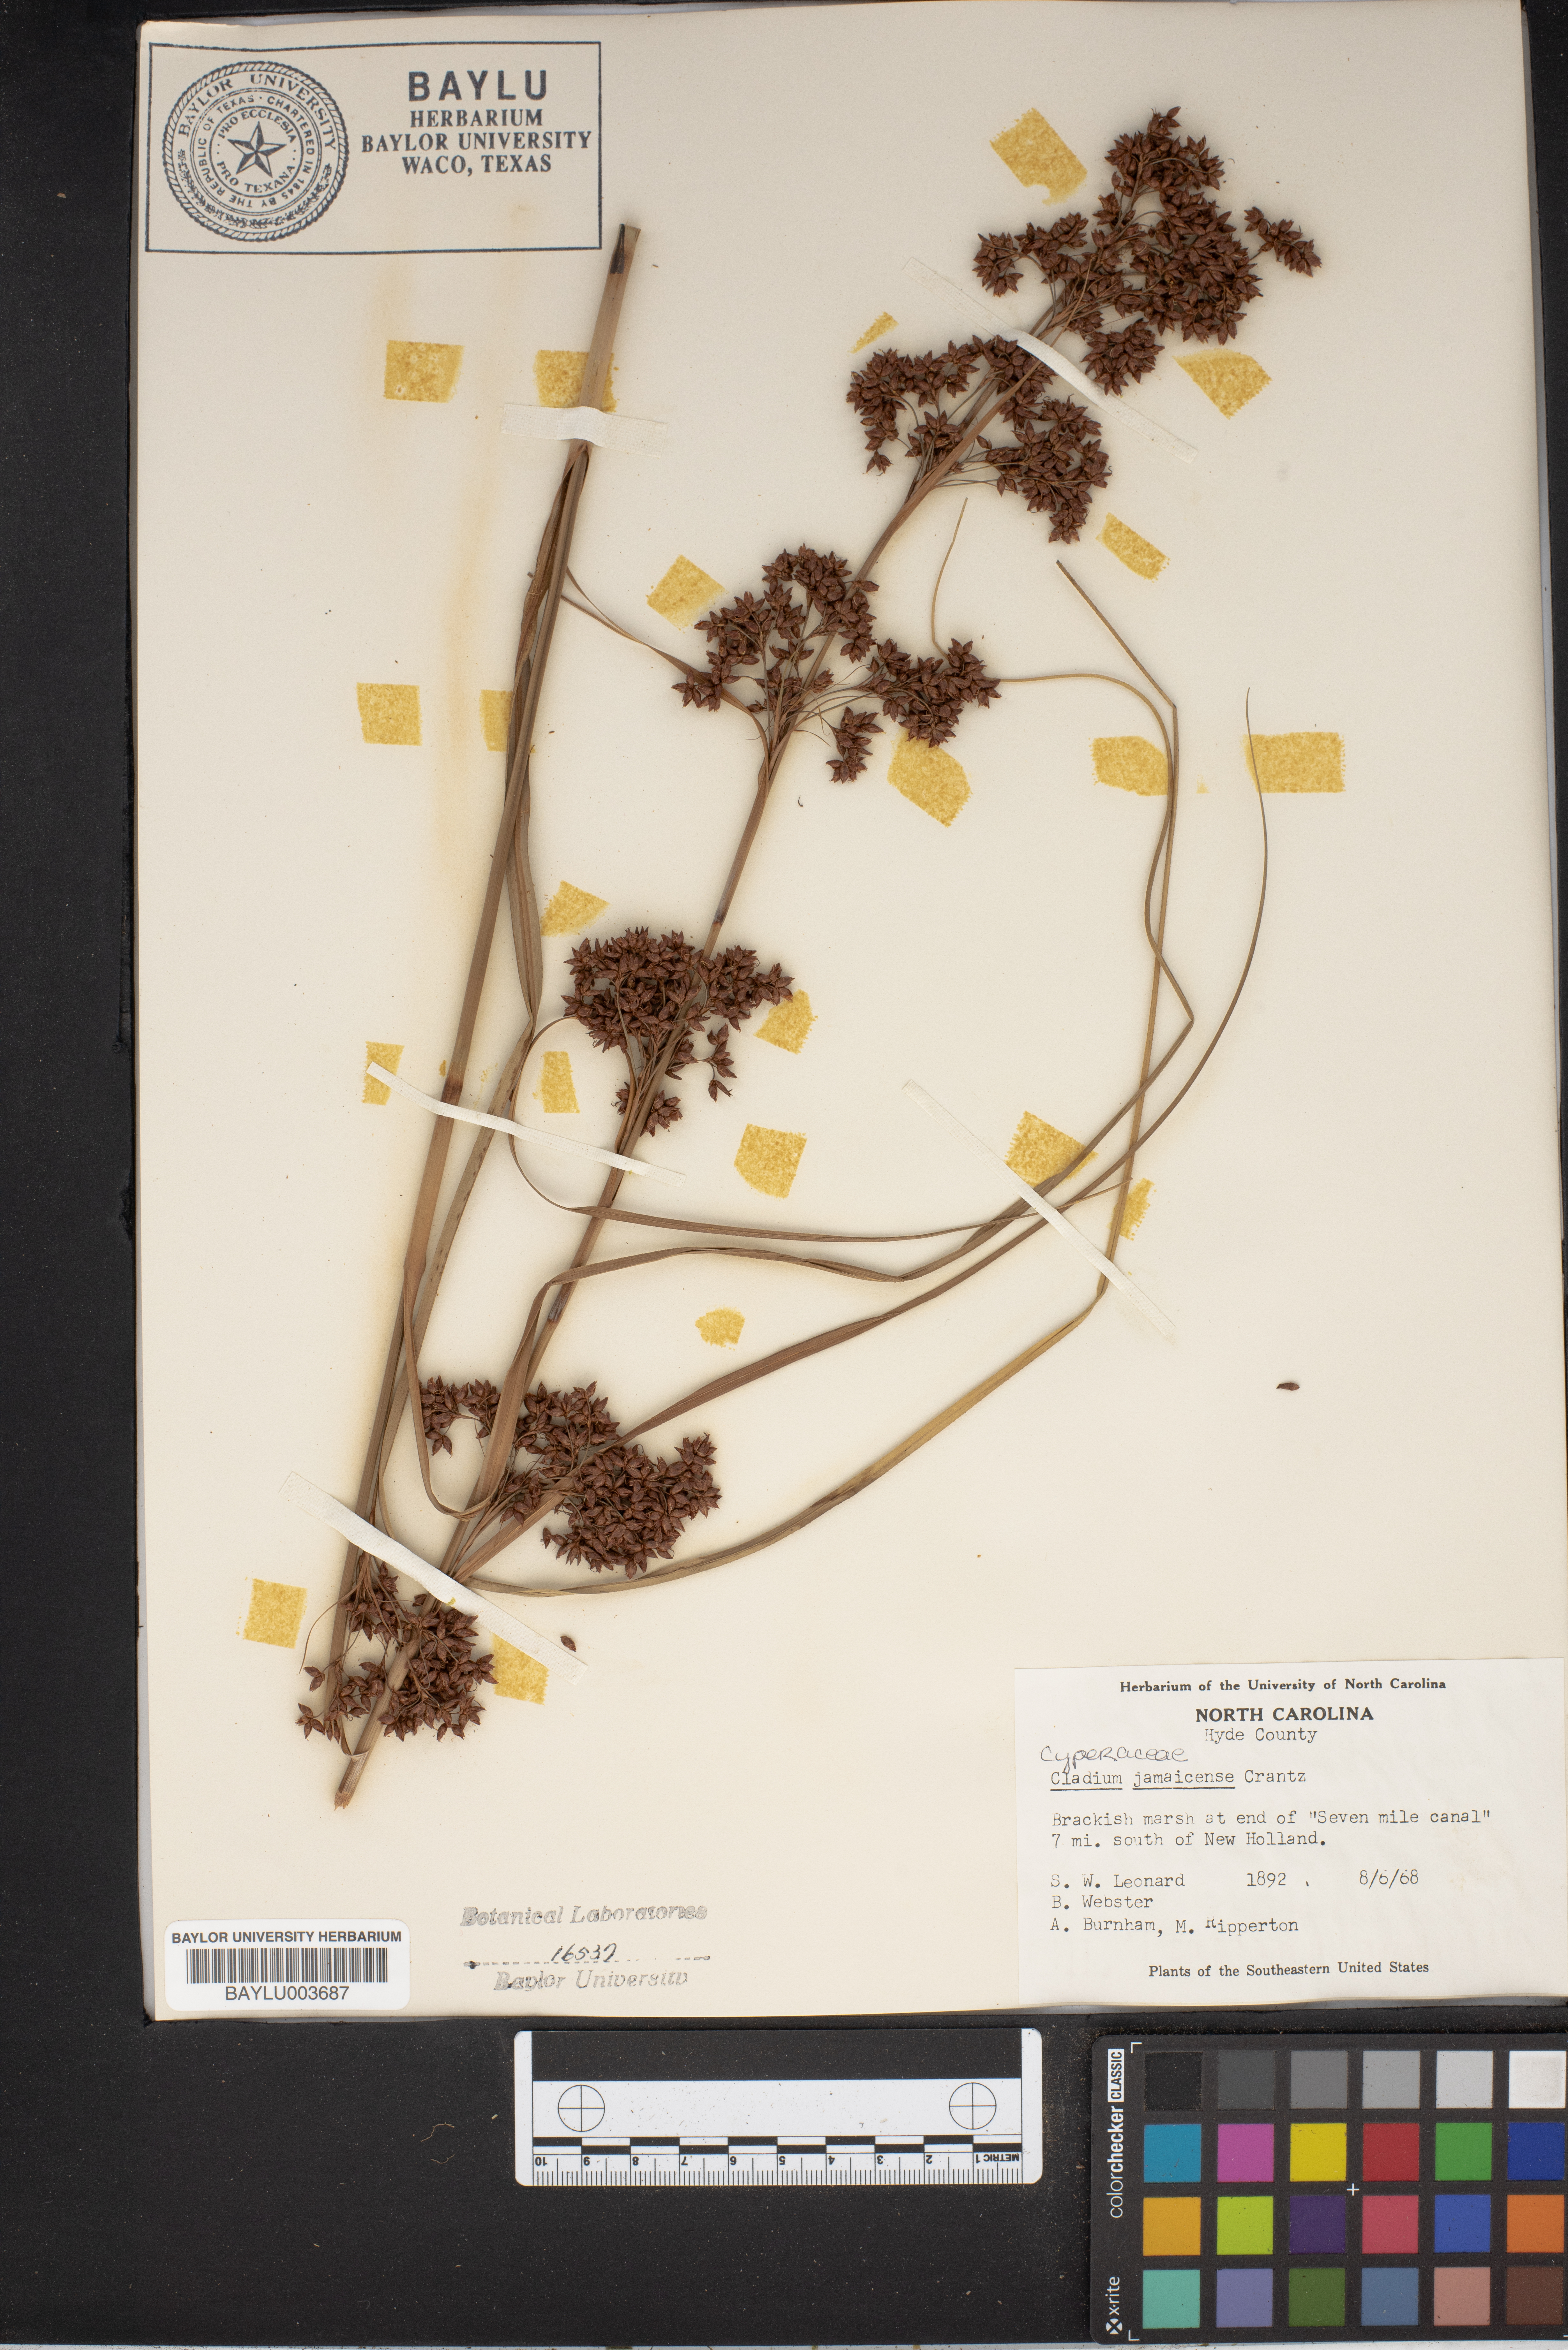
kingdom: Plantae
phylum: Tracheophyta
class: Liliopsida
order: Poales
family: Cyperaceae
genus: Cladium
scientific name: Cladium mariscus
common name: Great fen-sedge
